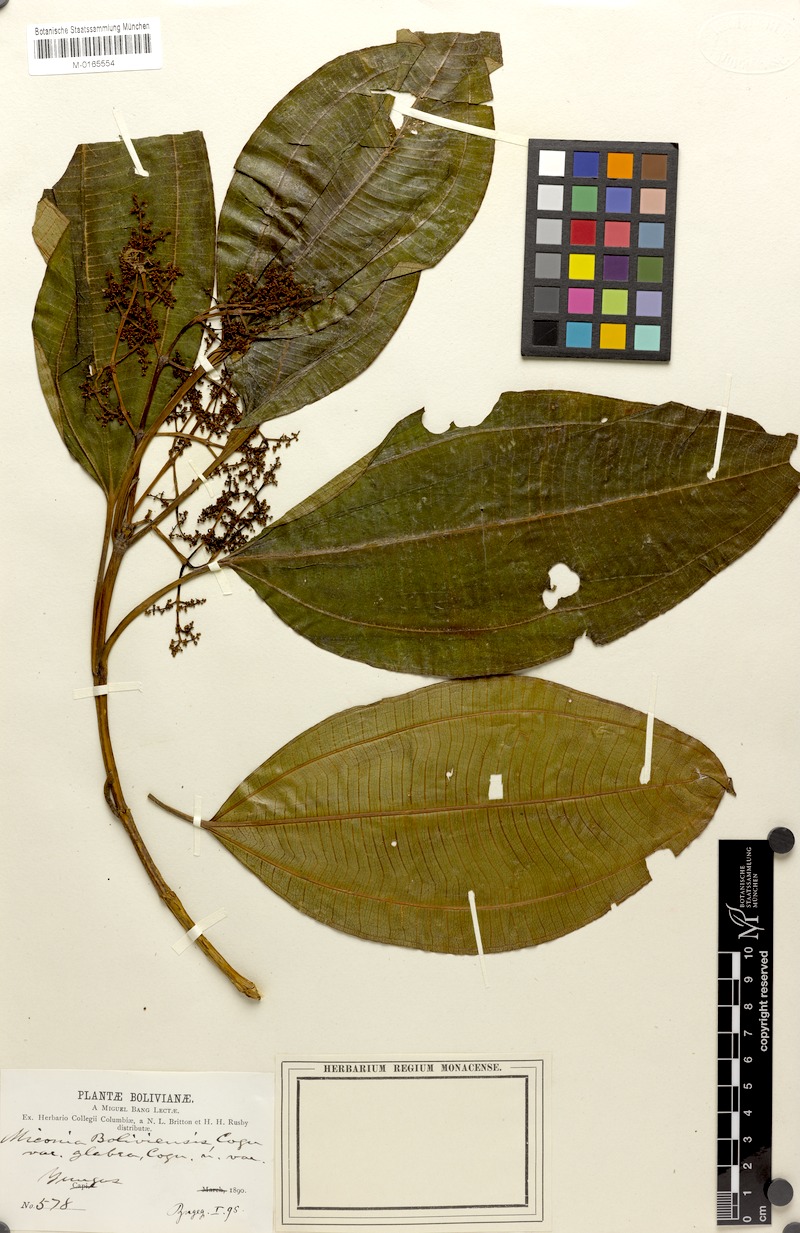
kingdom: Plantae
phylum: Tracheophyta
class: Magnoliopsida
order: Myrtales
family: Melastomataceae
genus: Miconia
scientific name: Miconia boliviensis
